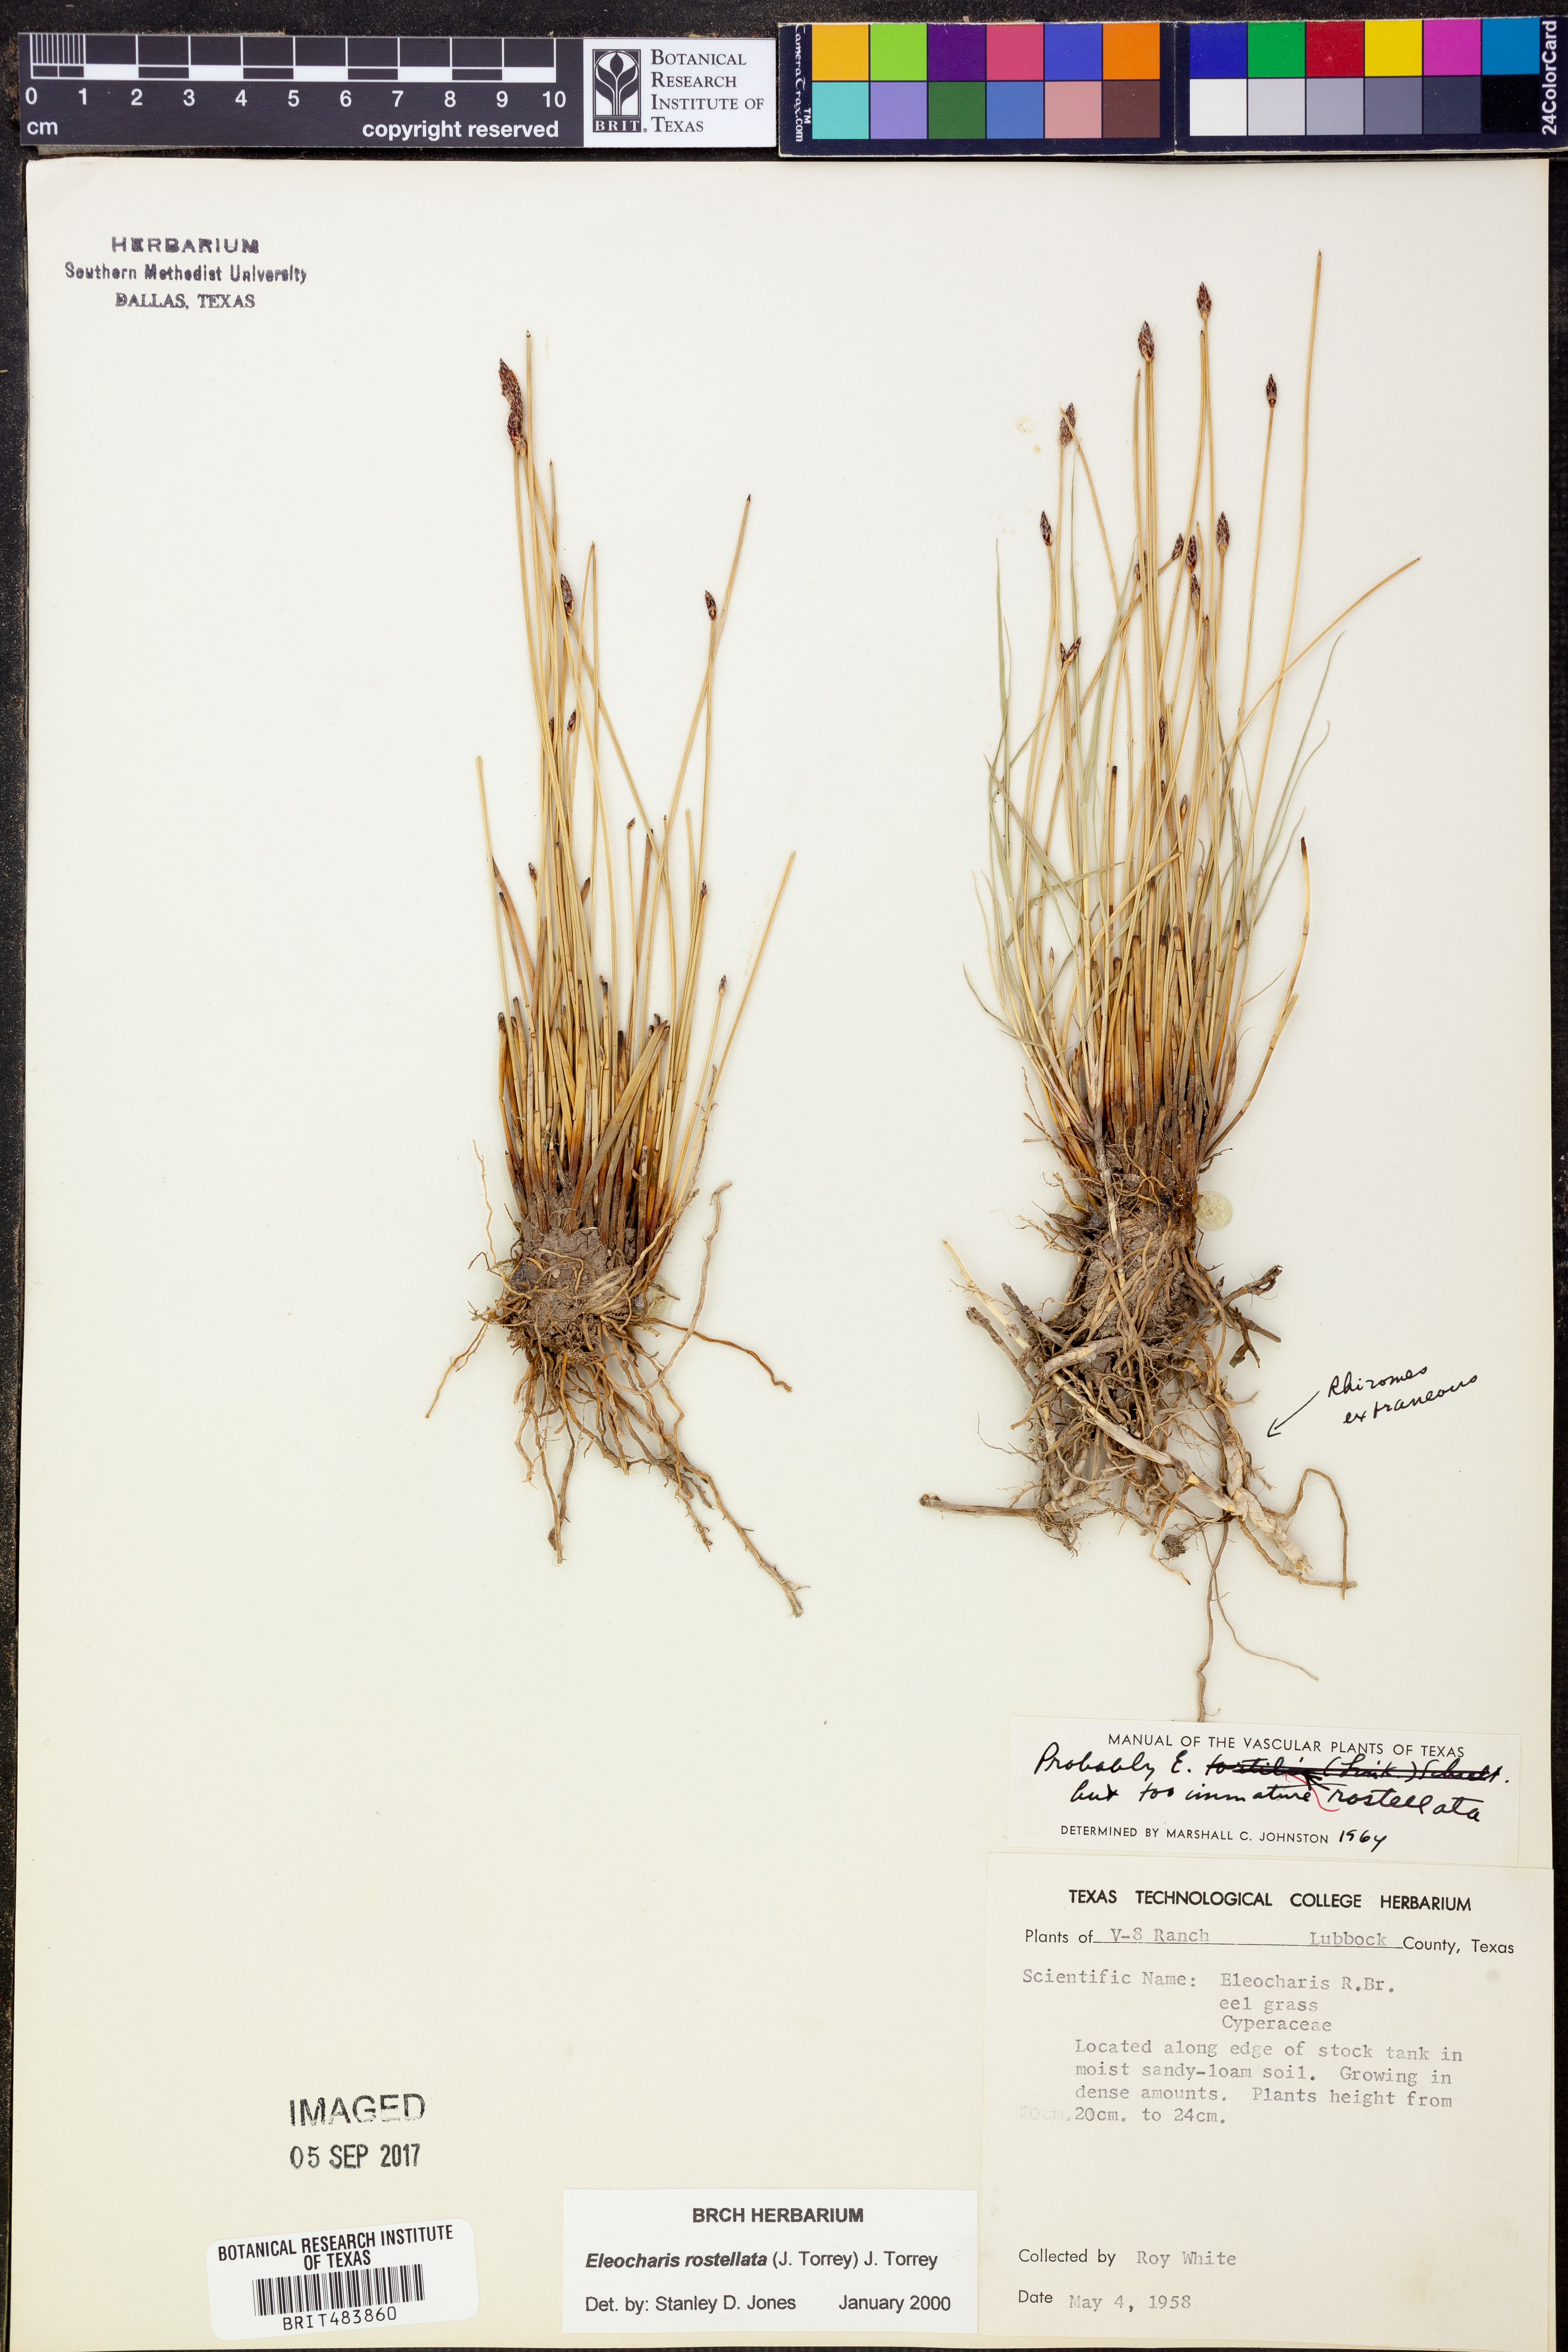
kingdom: Plantae
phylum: Tracheophyta
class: Liliopsida
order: Poales
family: Cyperaceae
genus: Eleocharis
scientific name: Eleocharis rostellata
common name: Walking sedge
